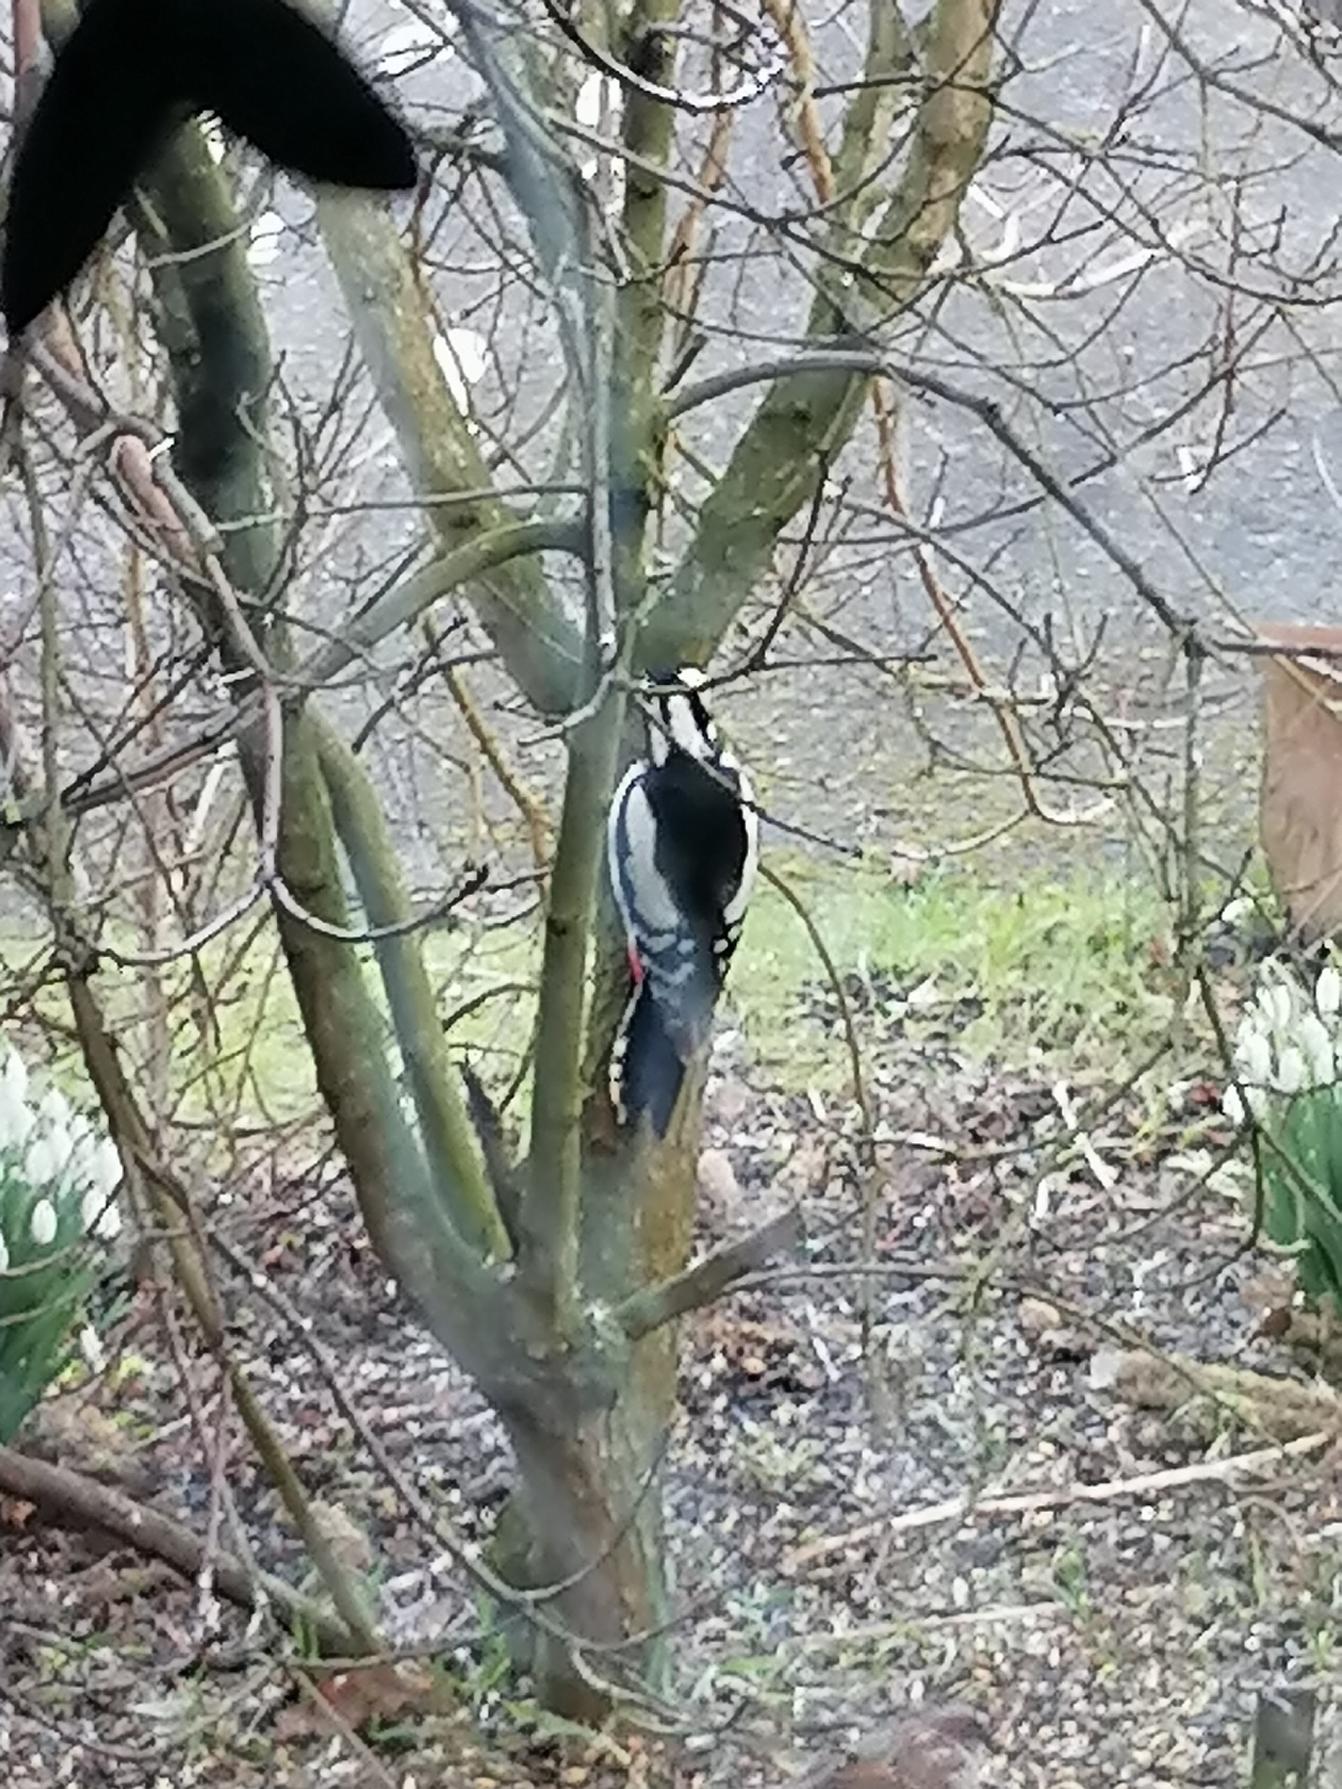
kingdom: Animalia
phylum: Chordata
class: Aves
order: Piciformes
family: Picidae
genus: Dendrocopos
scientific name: Dendrocopos major
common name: Stor flagspætte
